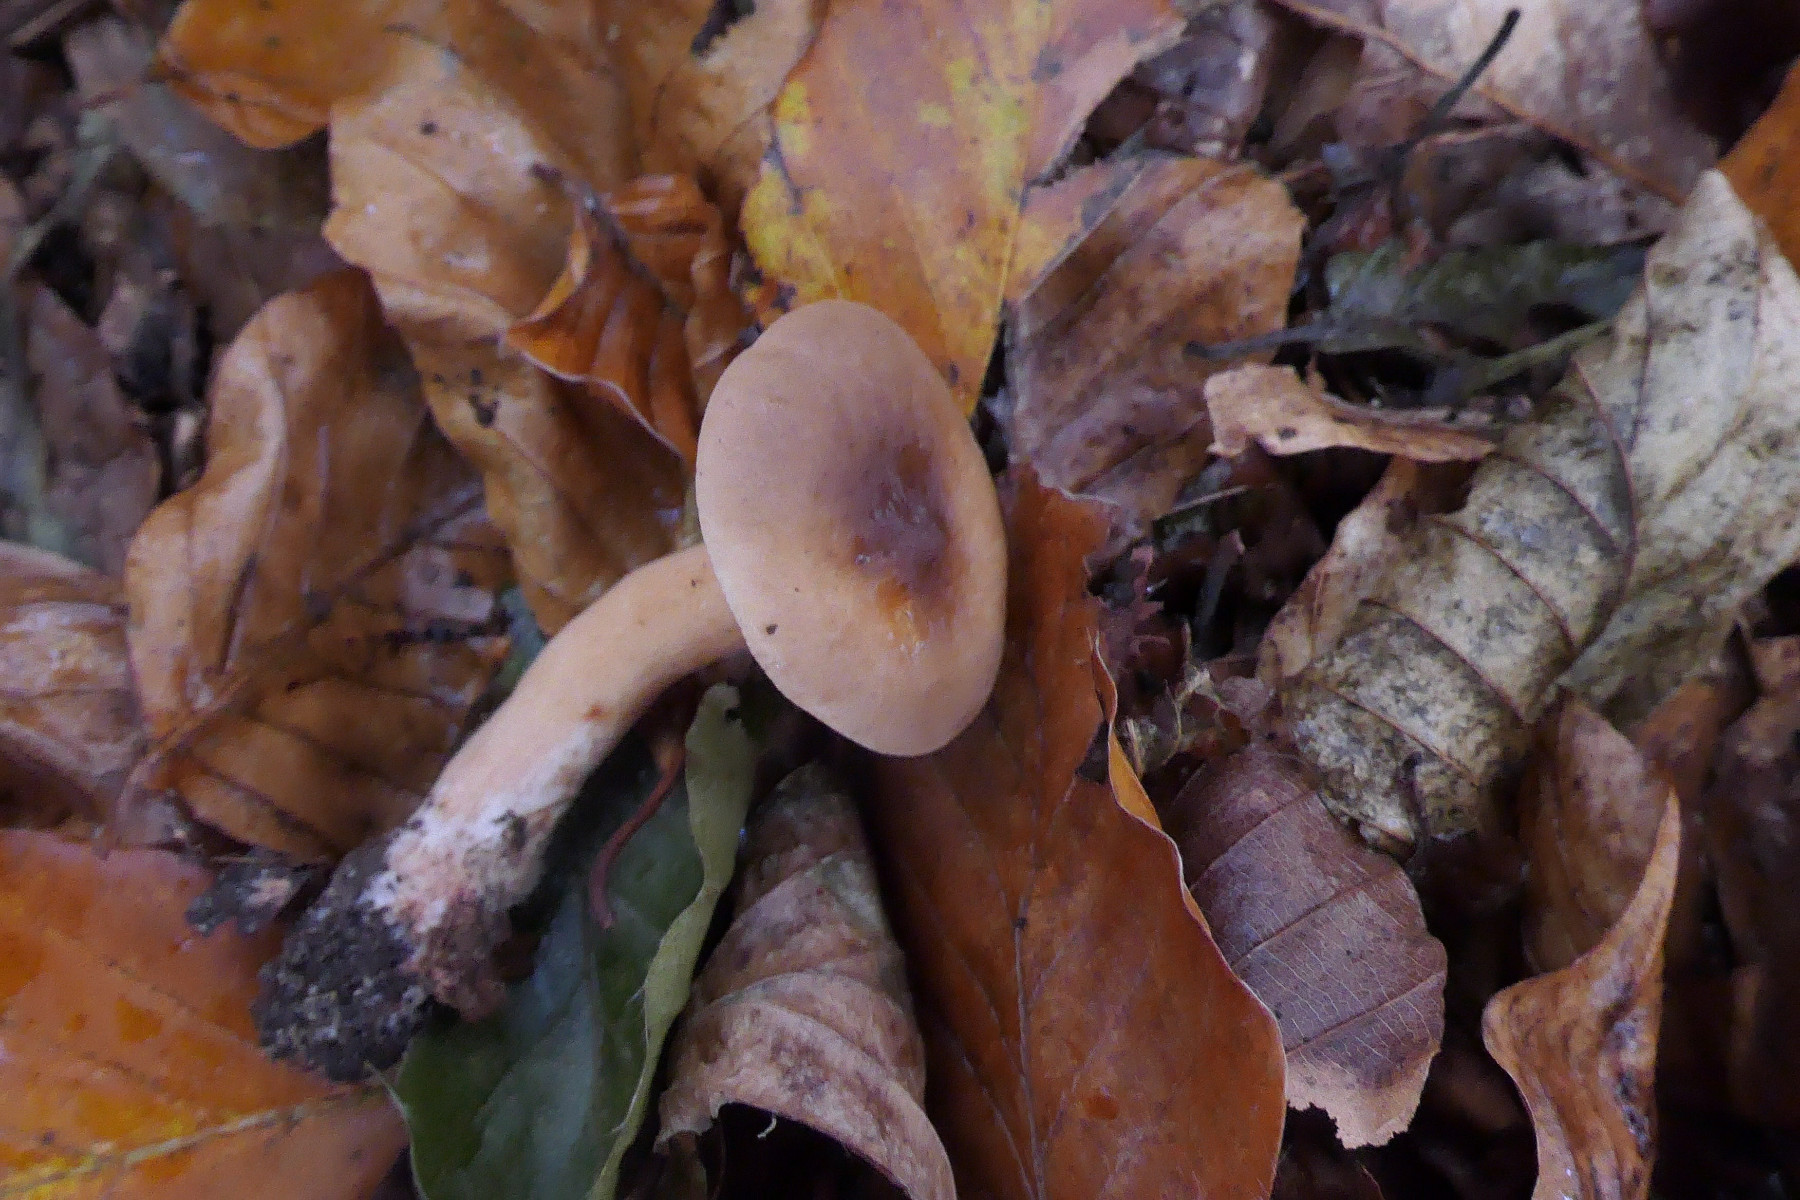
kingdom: Fungi
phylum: Basidiomycota
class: Agaricomycetes
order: Russulales
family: Russulaceae
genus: Lactarius
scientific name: Lactarius tabidus
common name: rynket mælkehat
